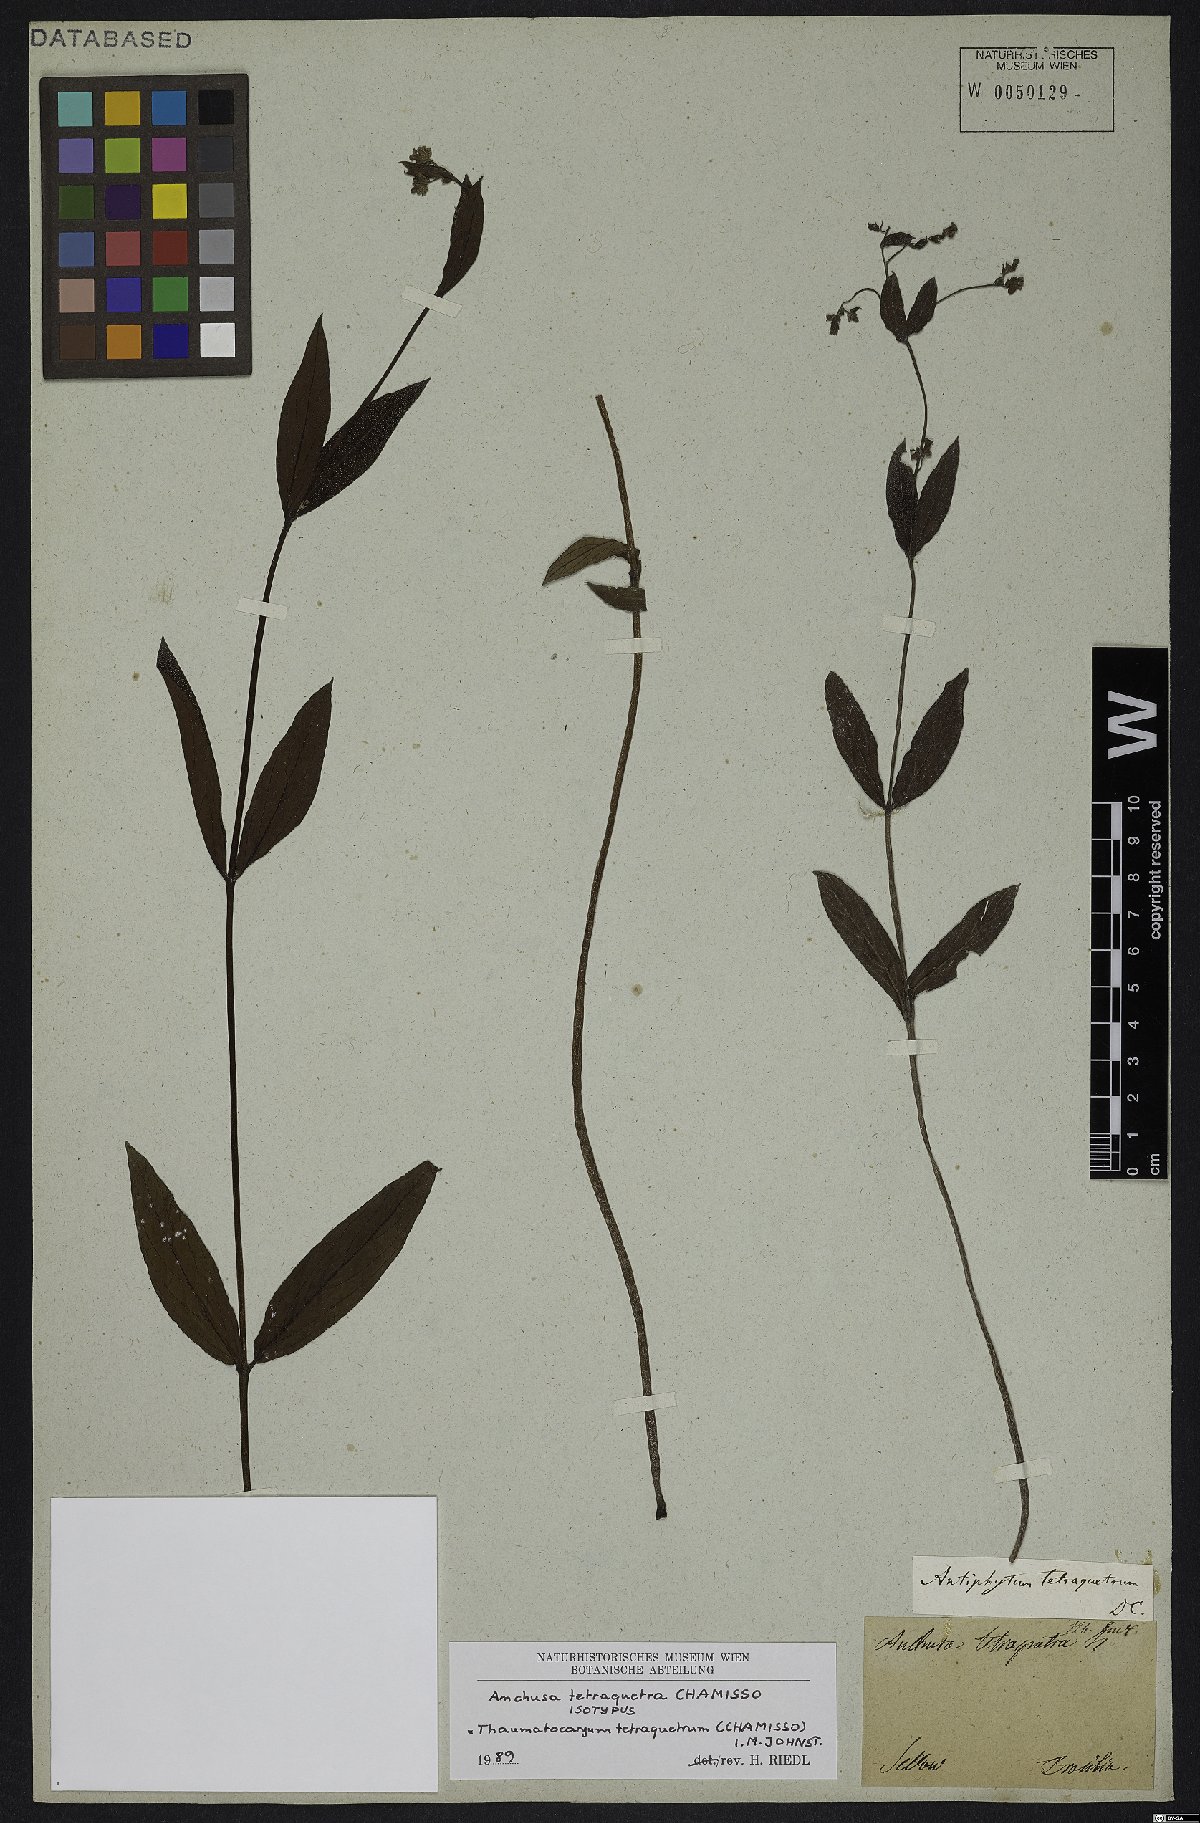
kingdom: Plantae
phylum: Tracheophyta
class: Magnoliopsida
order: Boraginales
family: Boraginaceae
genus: Thaumatocaryon
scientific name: Thaumatocaryon tetraquetrum
